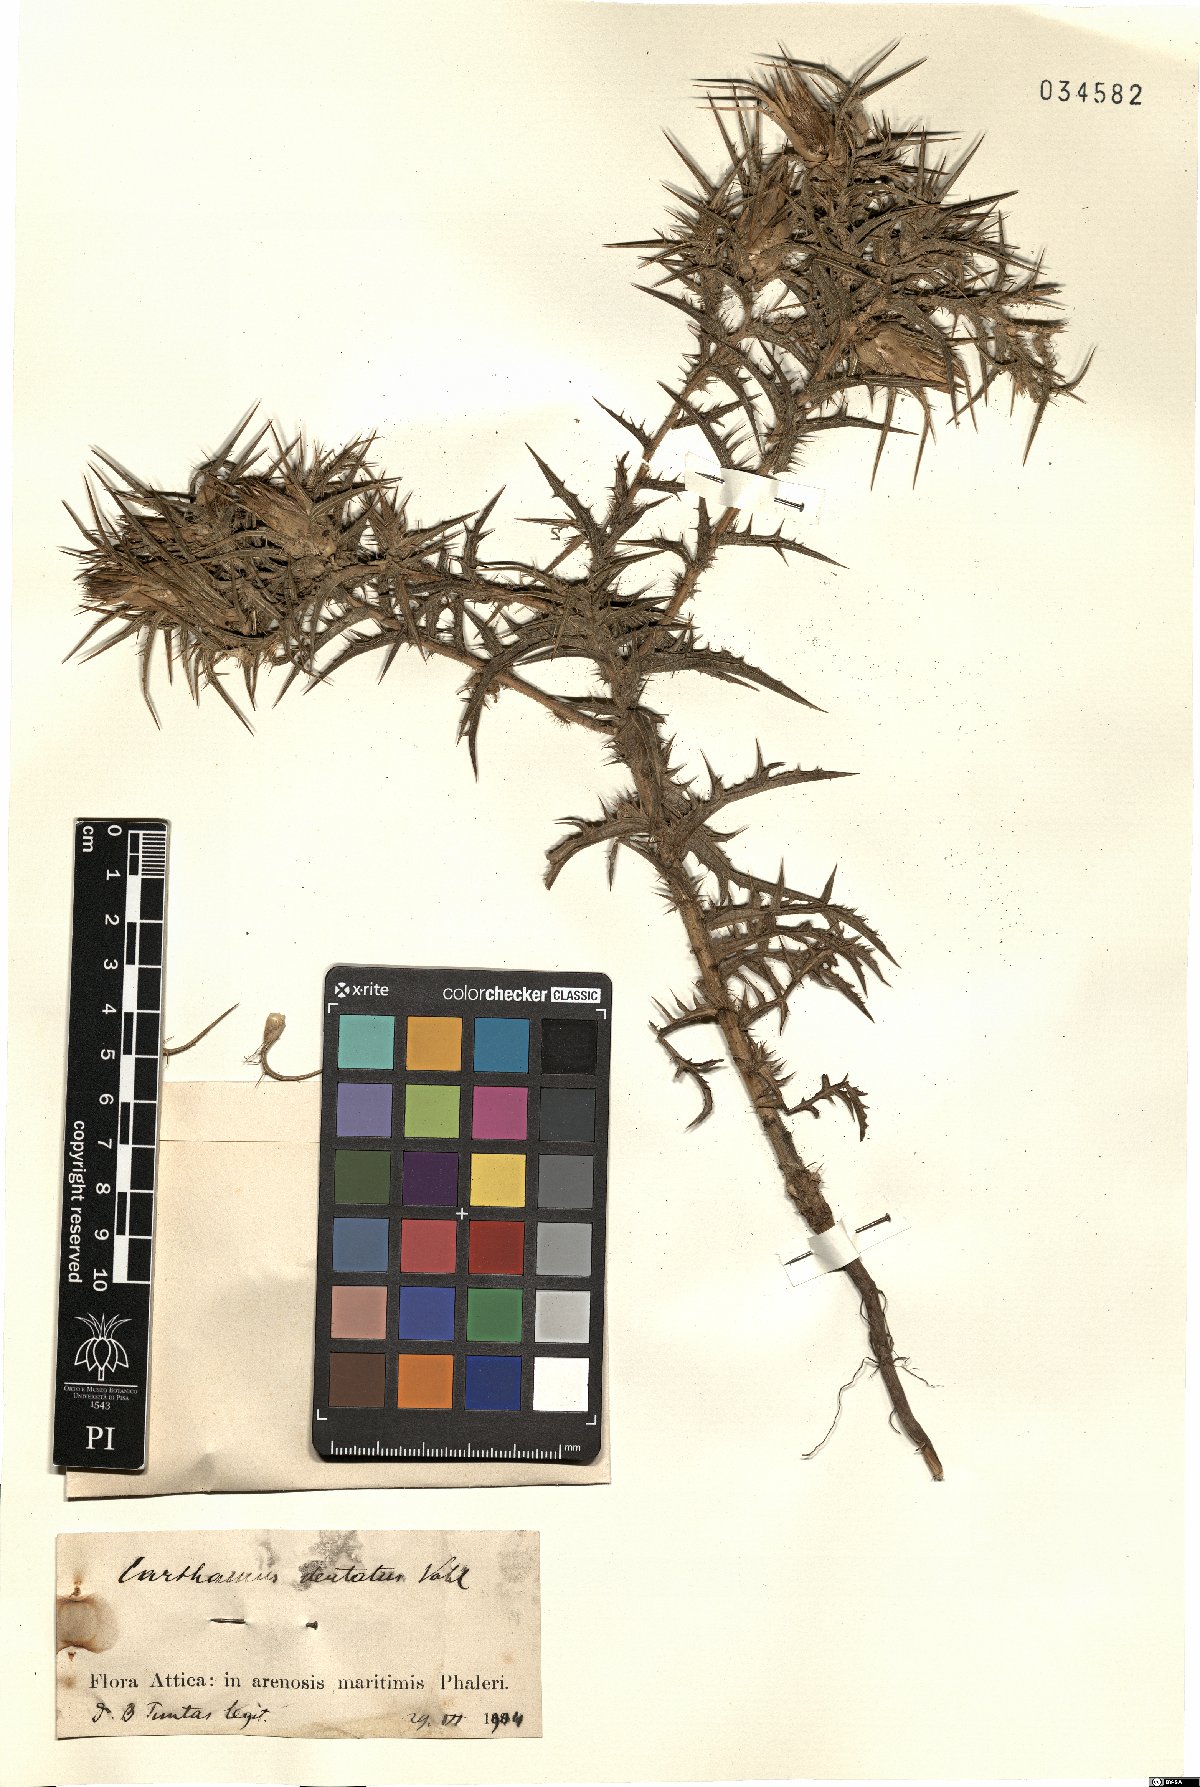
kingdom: Plantae
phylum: Tracheophyta
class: Magnoliopsida
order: Asterales
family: Asteraceae
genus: Carthamus
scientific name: Carthamus dentatus
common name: Toothed thistle
